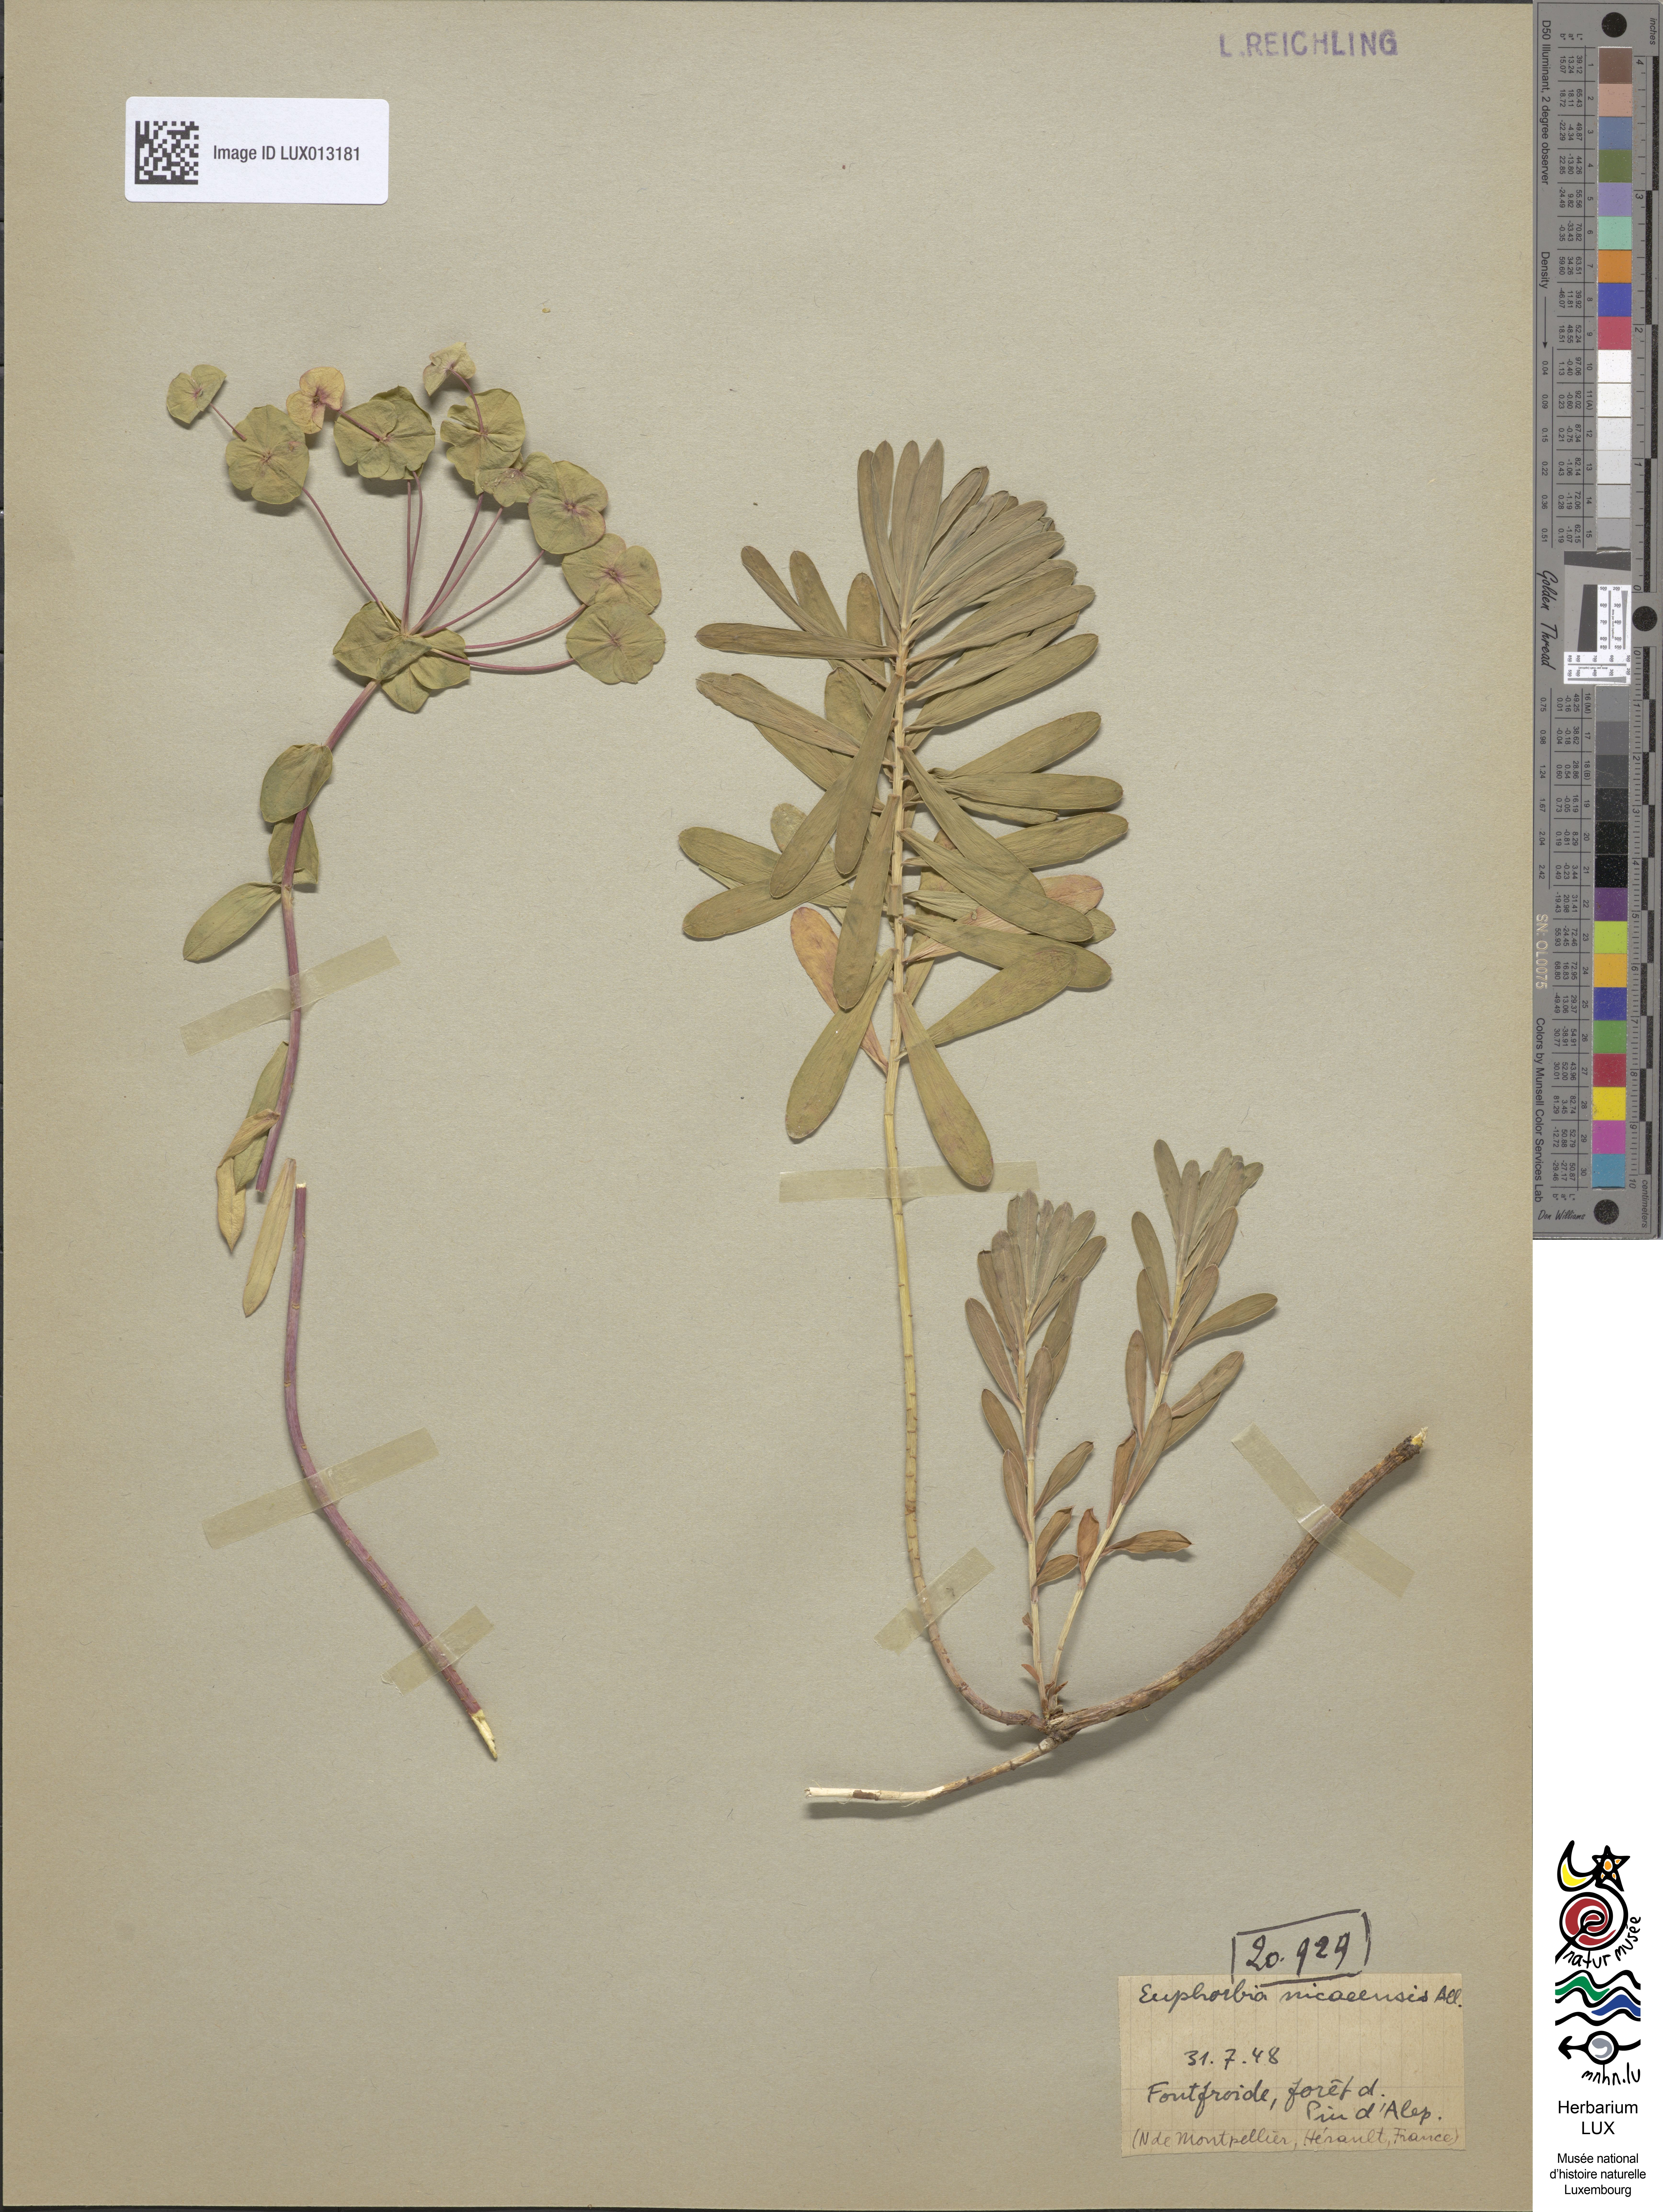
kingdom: Plantae
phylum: Tracheophyta
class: Magnoliopsida
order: Malpighiales
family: Euphorbiaceae
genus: Euphorbia
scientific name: Euphorbia nicaeensis
